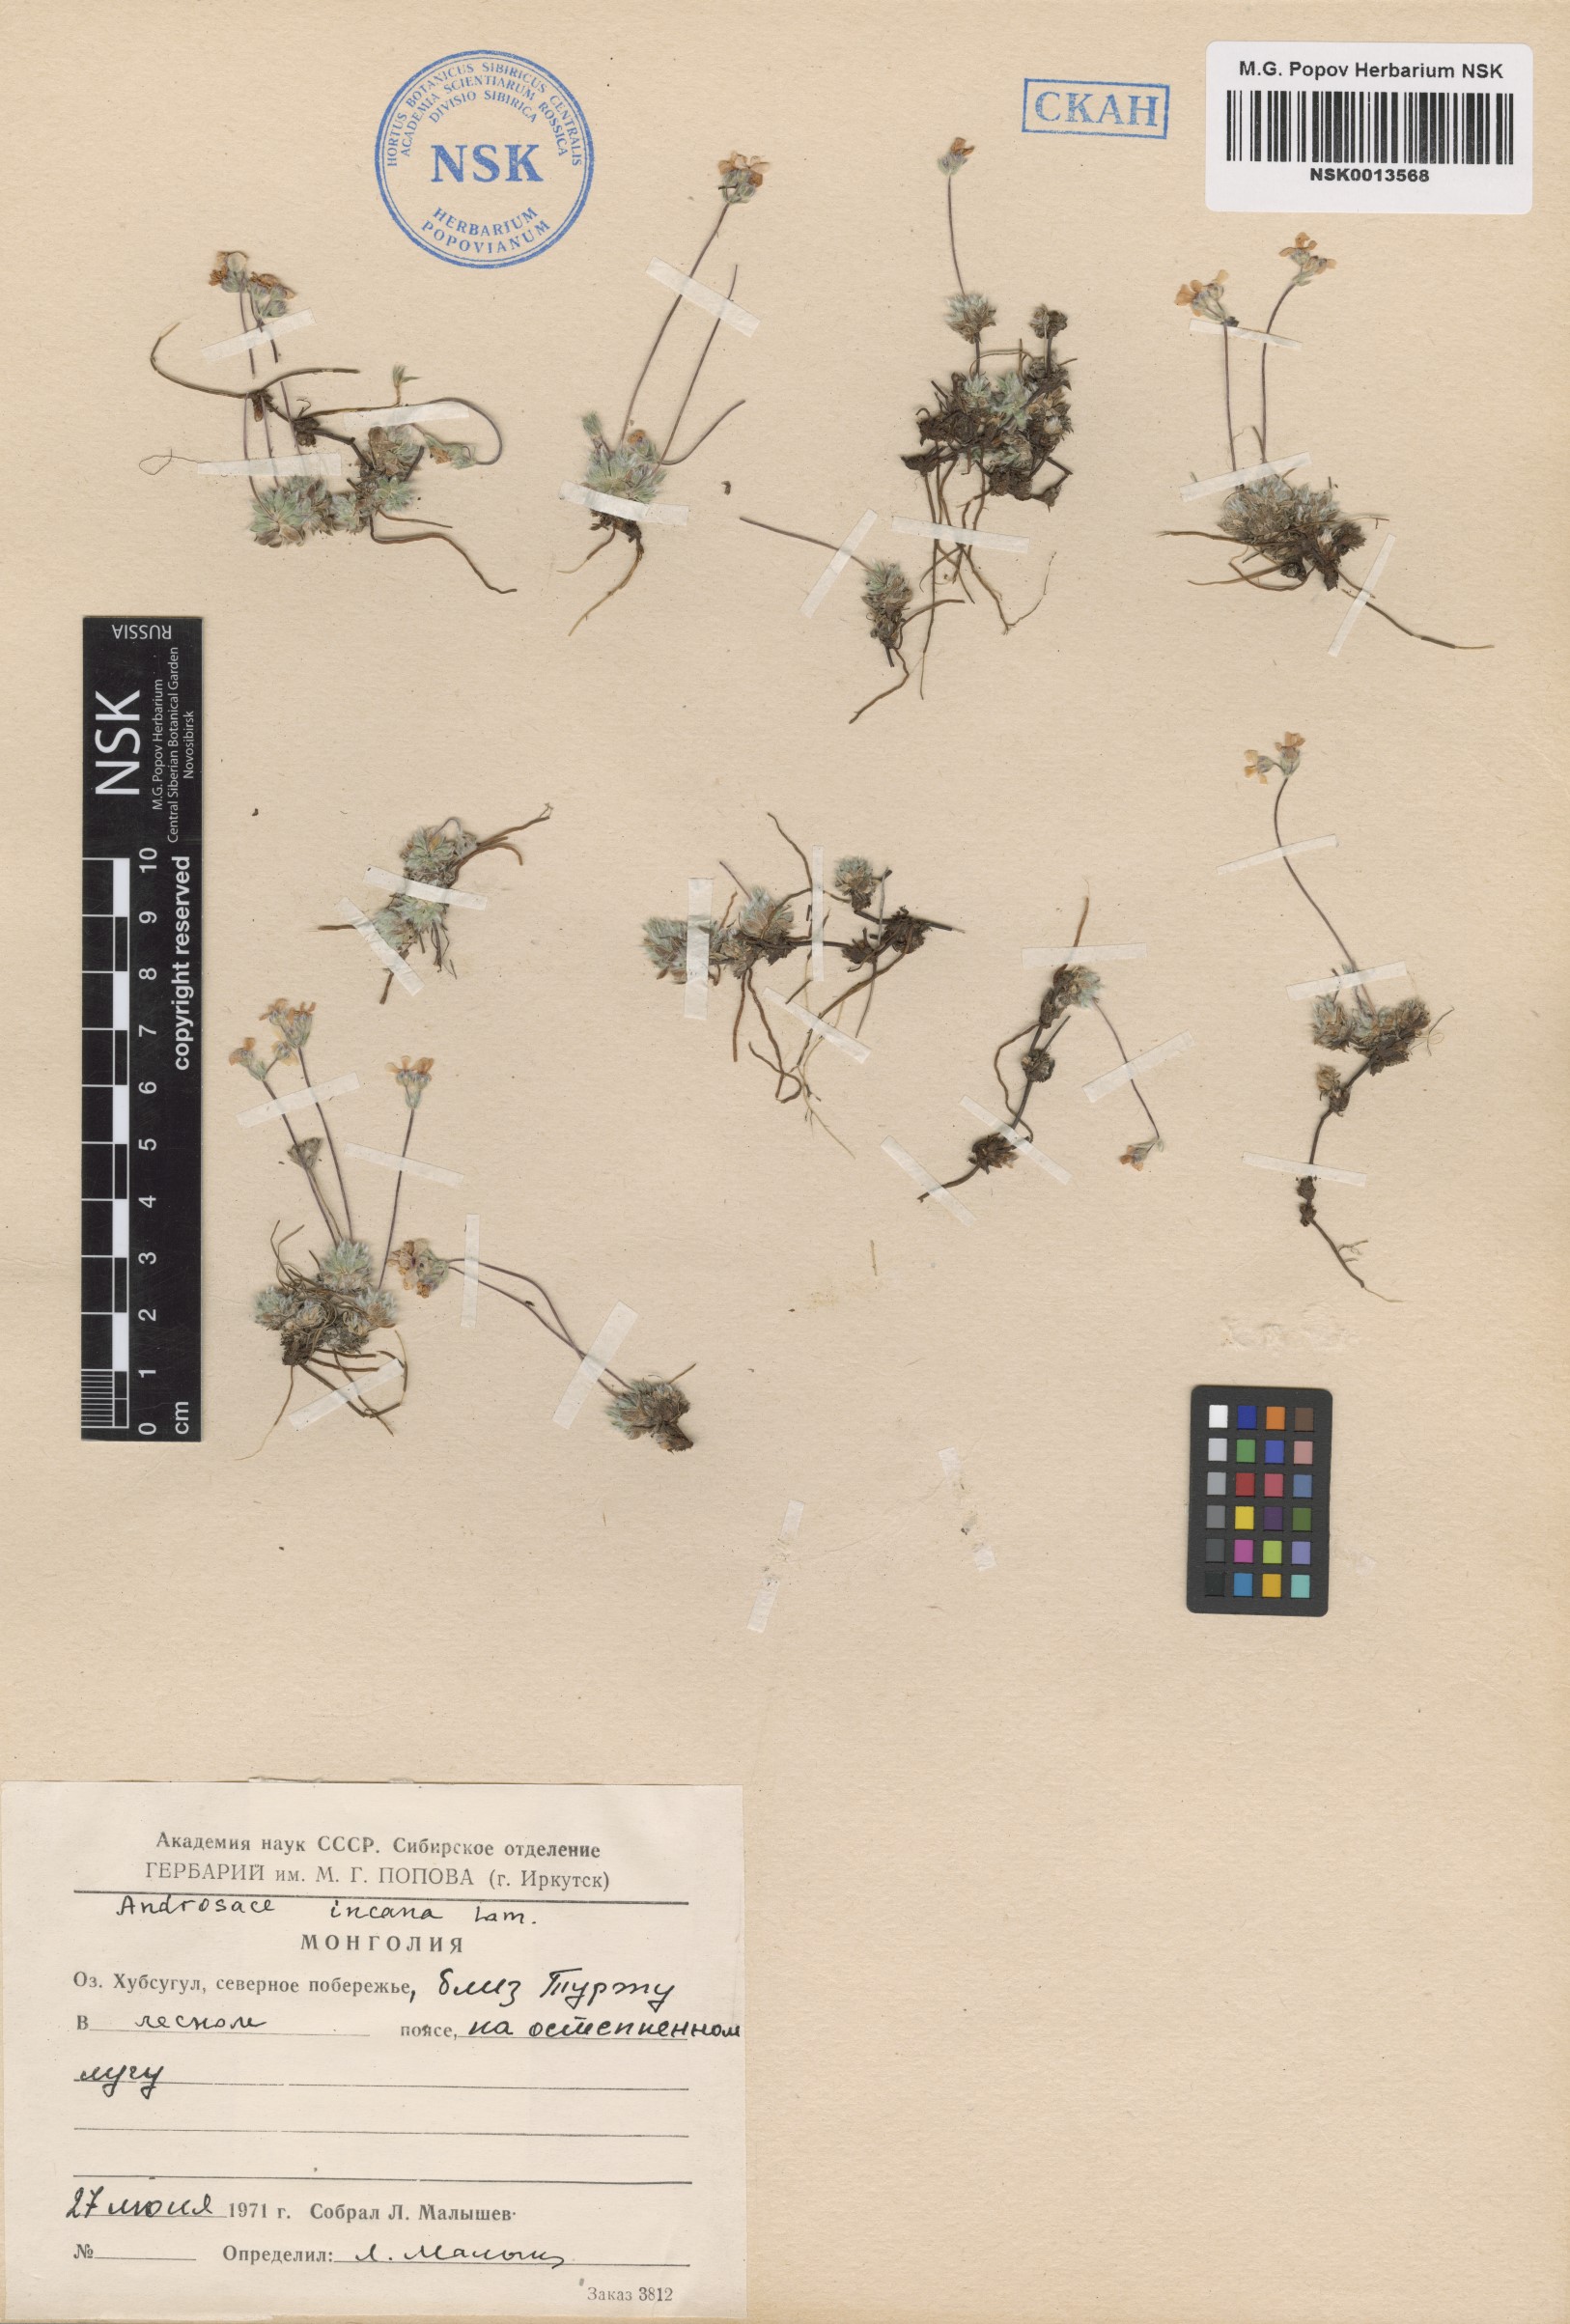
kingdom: Plantae
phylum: Tracheophyta
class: Magnoliopsida
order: Ericales
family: Primulaceae
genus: Androsace
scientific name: Androsace incana
